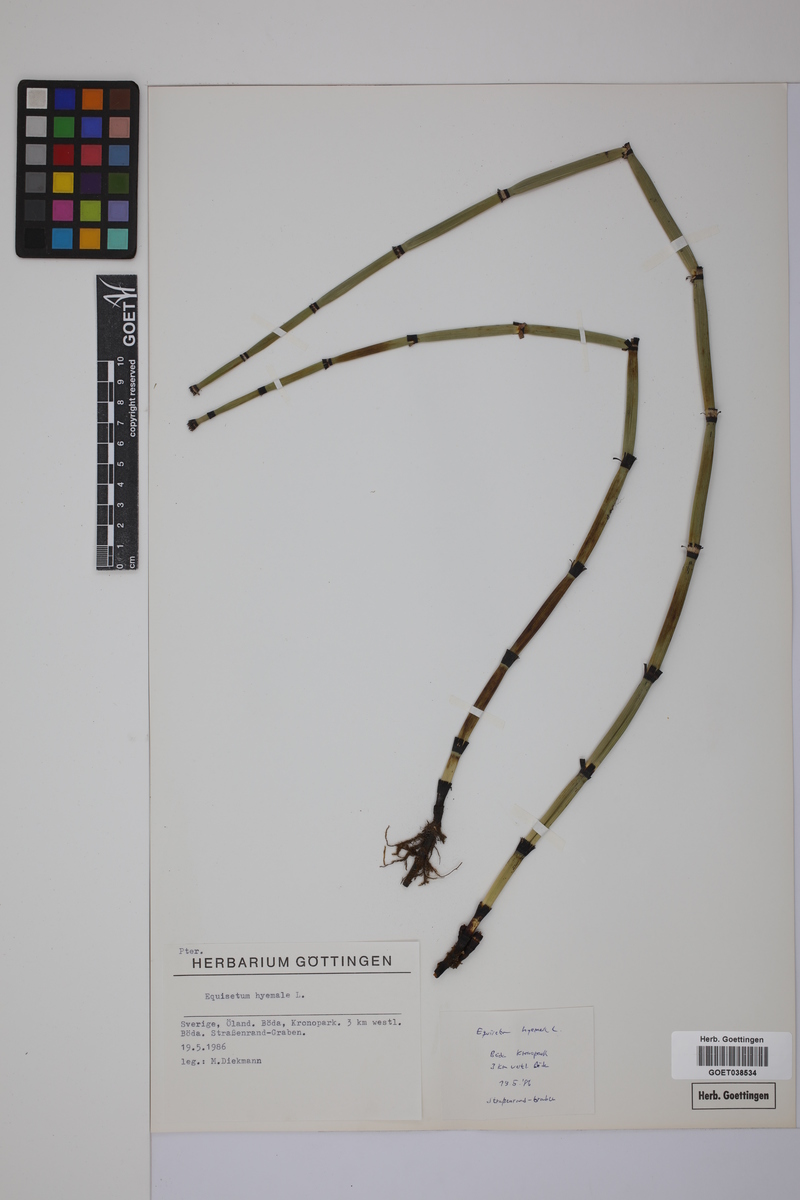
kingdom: Plantae
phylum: Tracheophyta
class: Polypodiopsida
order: Equisetales
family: Equisetaceae
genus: Equisetum
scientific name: Equisetum hyemale
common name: Rough horsetail
